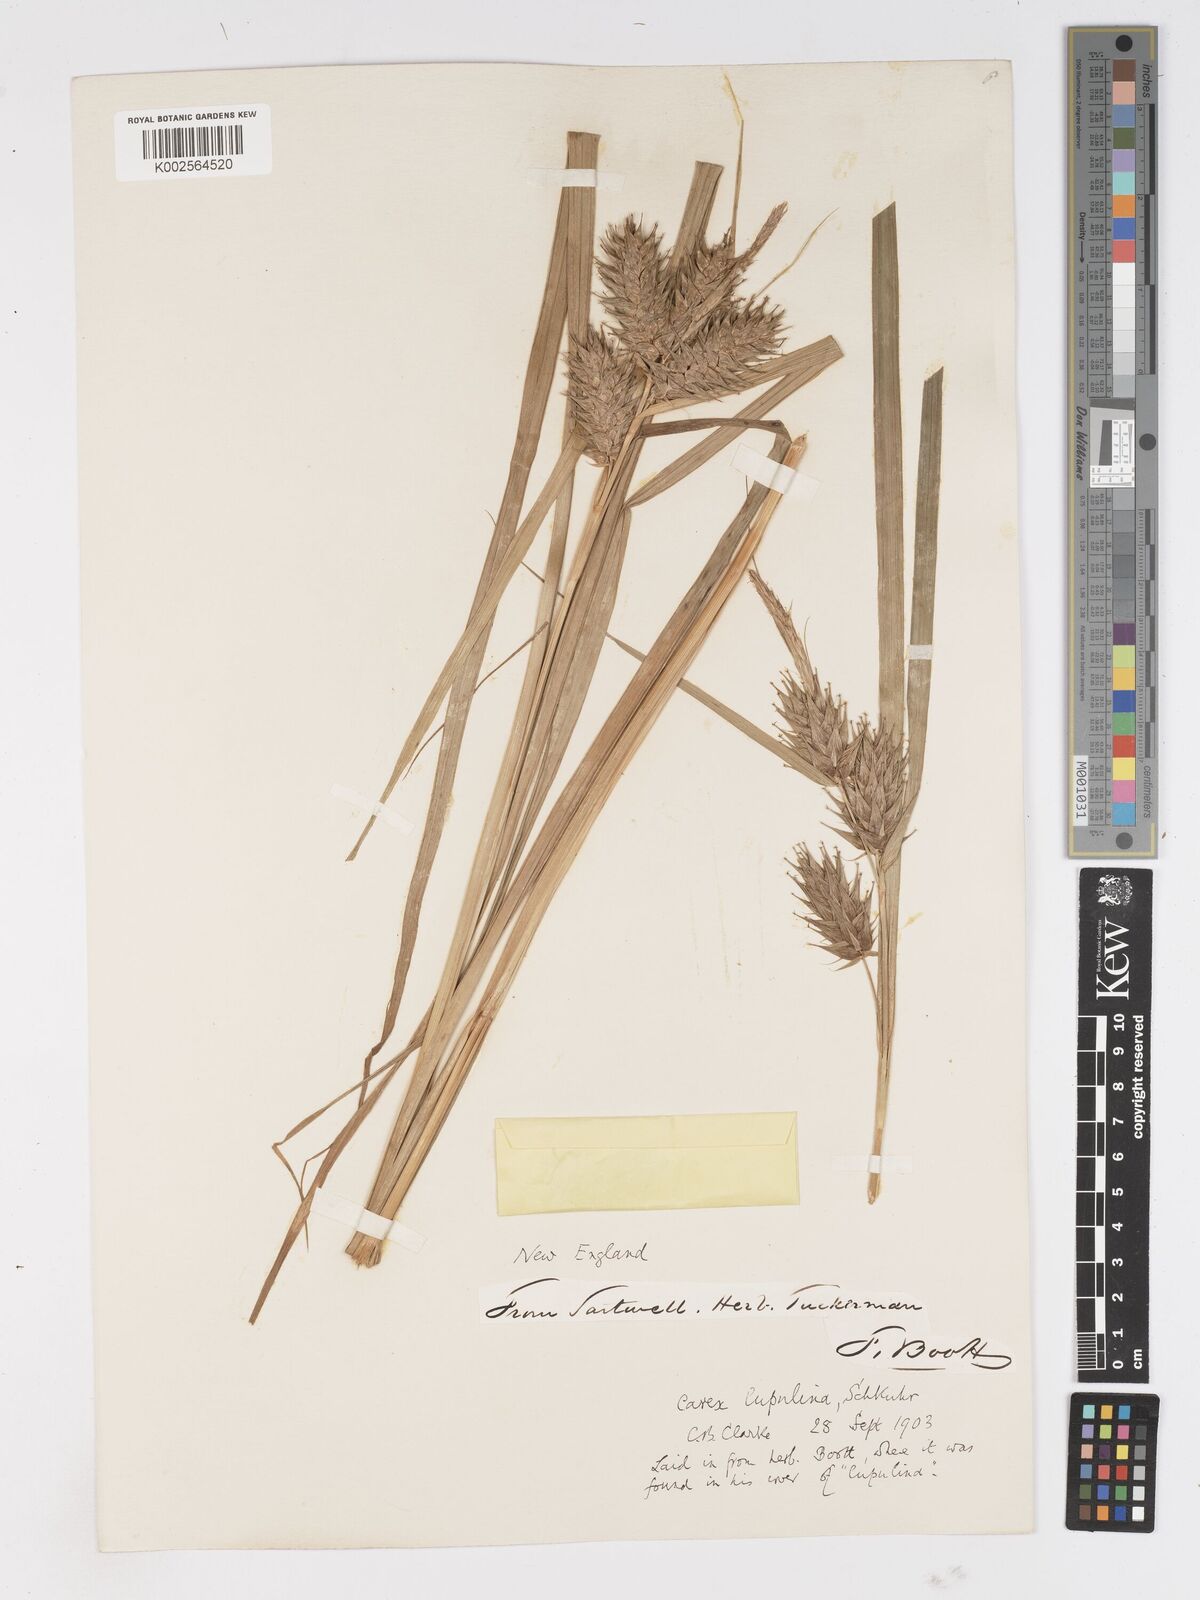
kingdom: Plantae
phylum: Tracheophyta
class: Liliopsida
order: Poales
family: Cyperaceae
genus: Carex
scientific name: Carex lupulina
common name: Hop sedge
